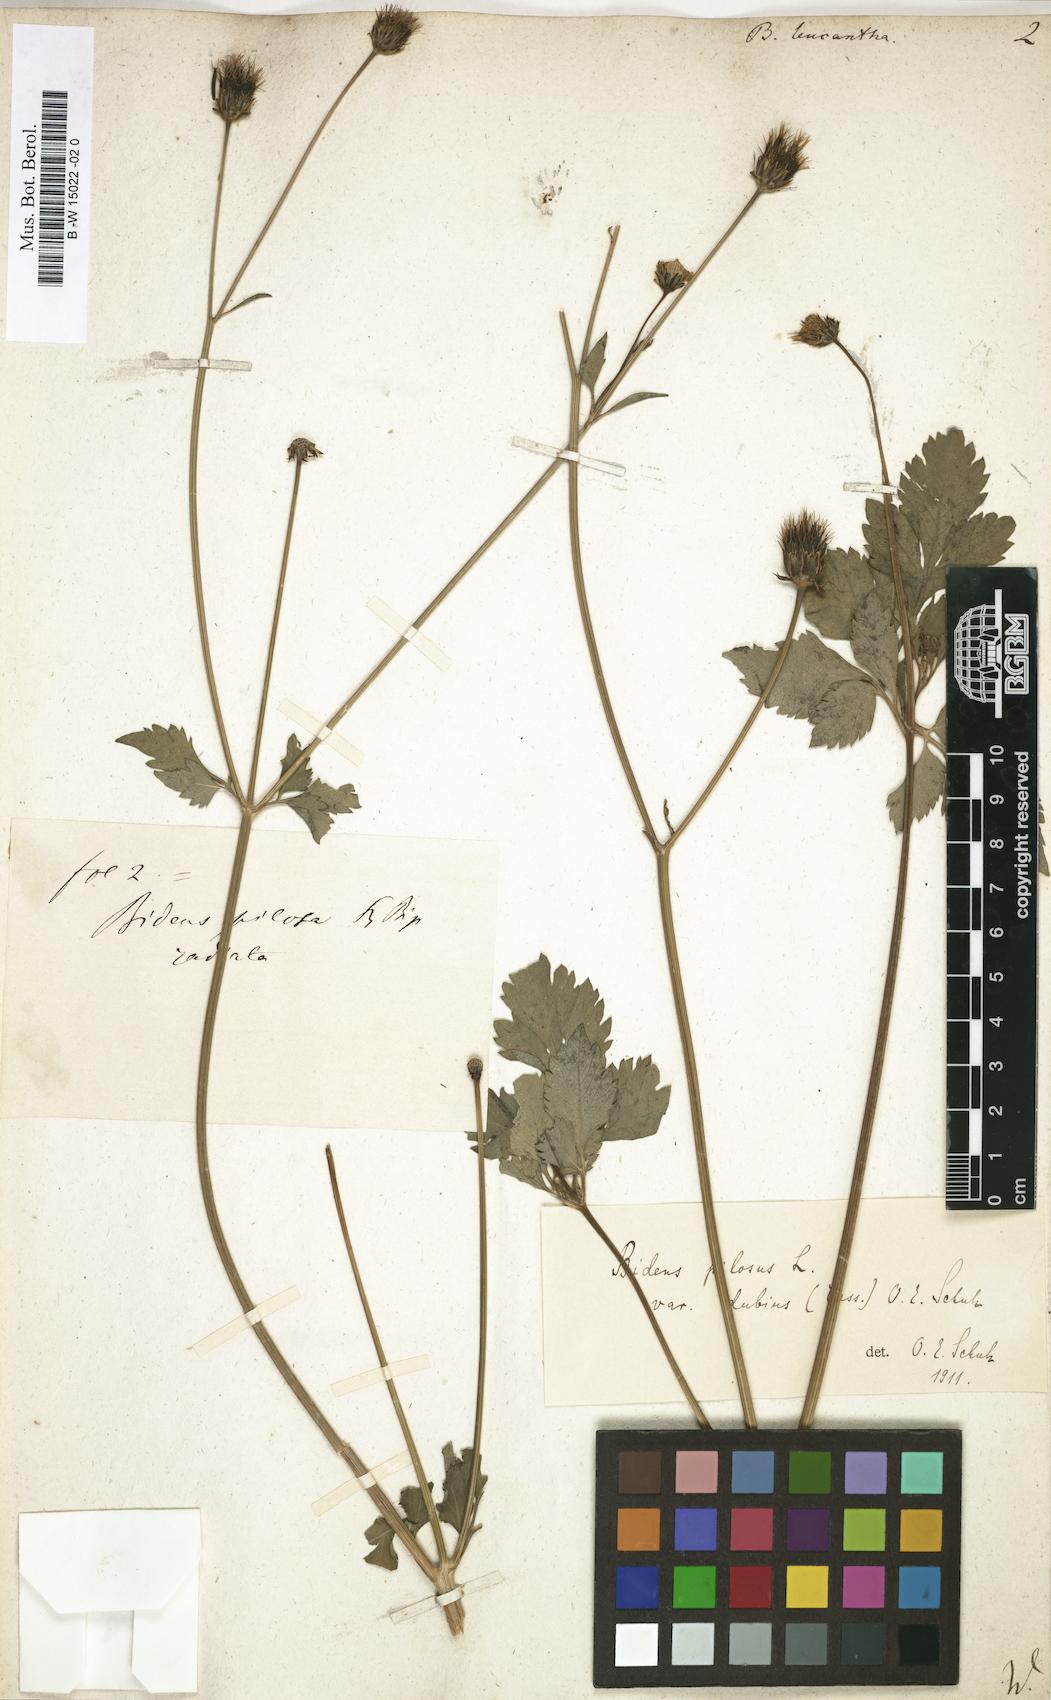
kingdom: Plantae
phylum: Tracheophyta
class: Magnoliopsida
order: Asterales
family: Asteraceae
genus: Bidens
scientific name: Bidens pilosa
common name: Black-jack
